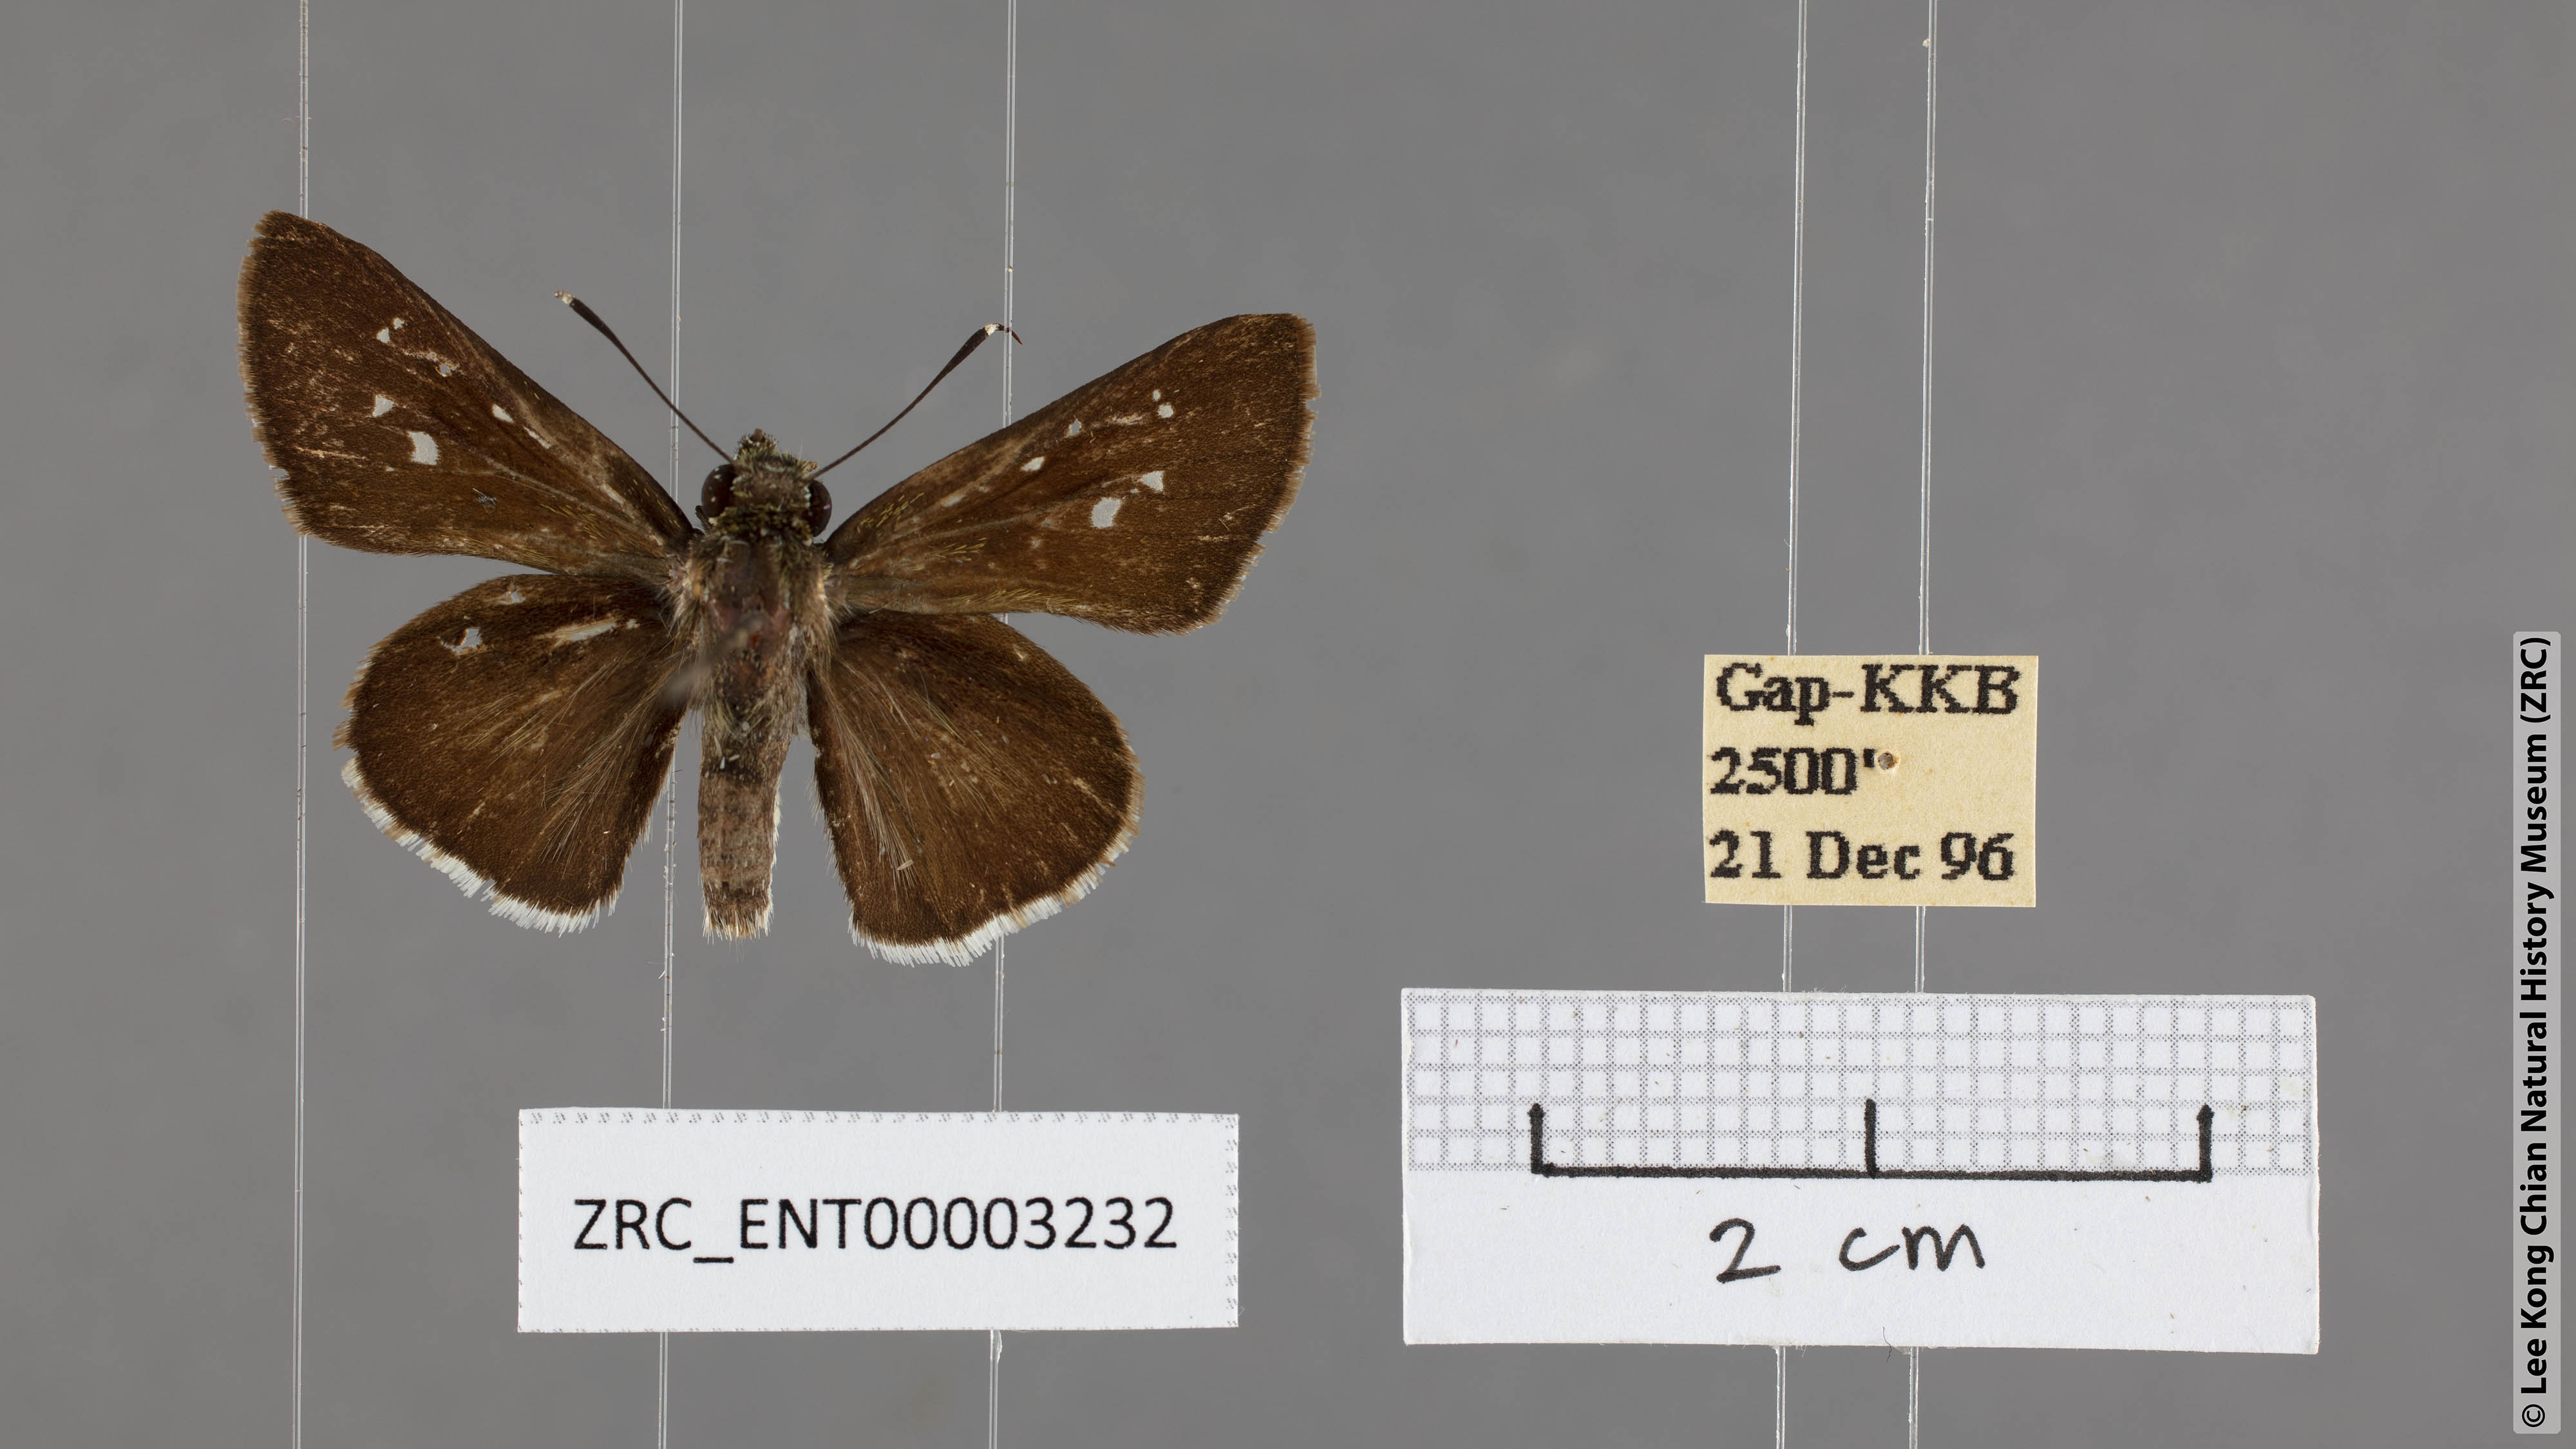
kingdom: Animalia
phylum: Arthropoda
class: Insecta
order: Lepidoptera
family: Hesperiidae
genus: Halpe
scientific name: Halpe insignis
